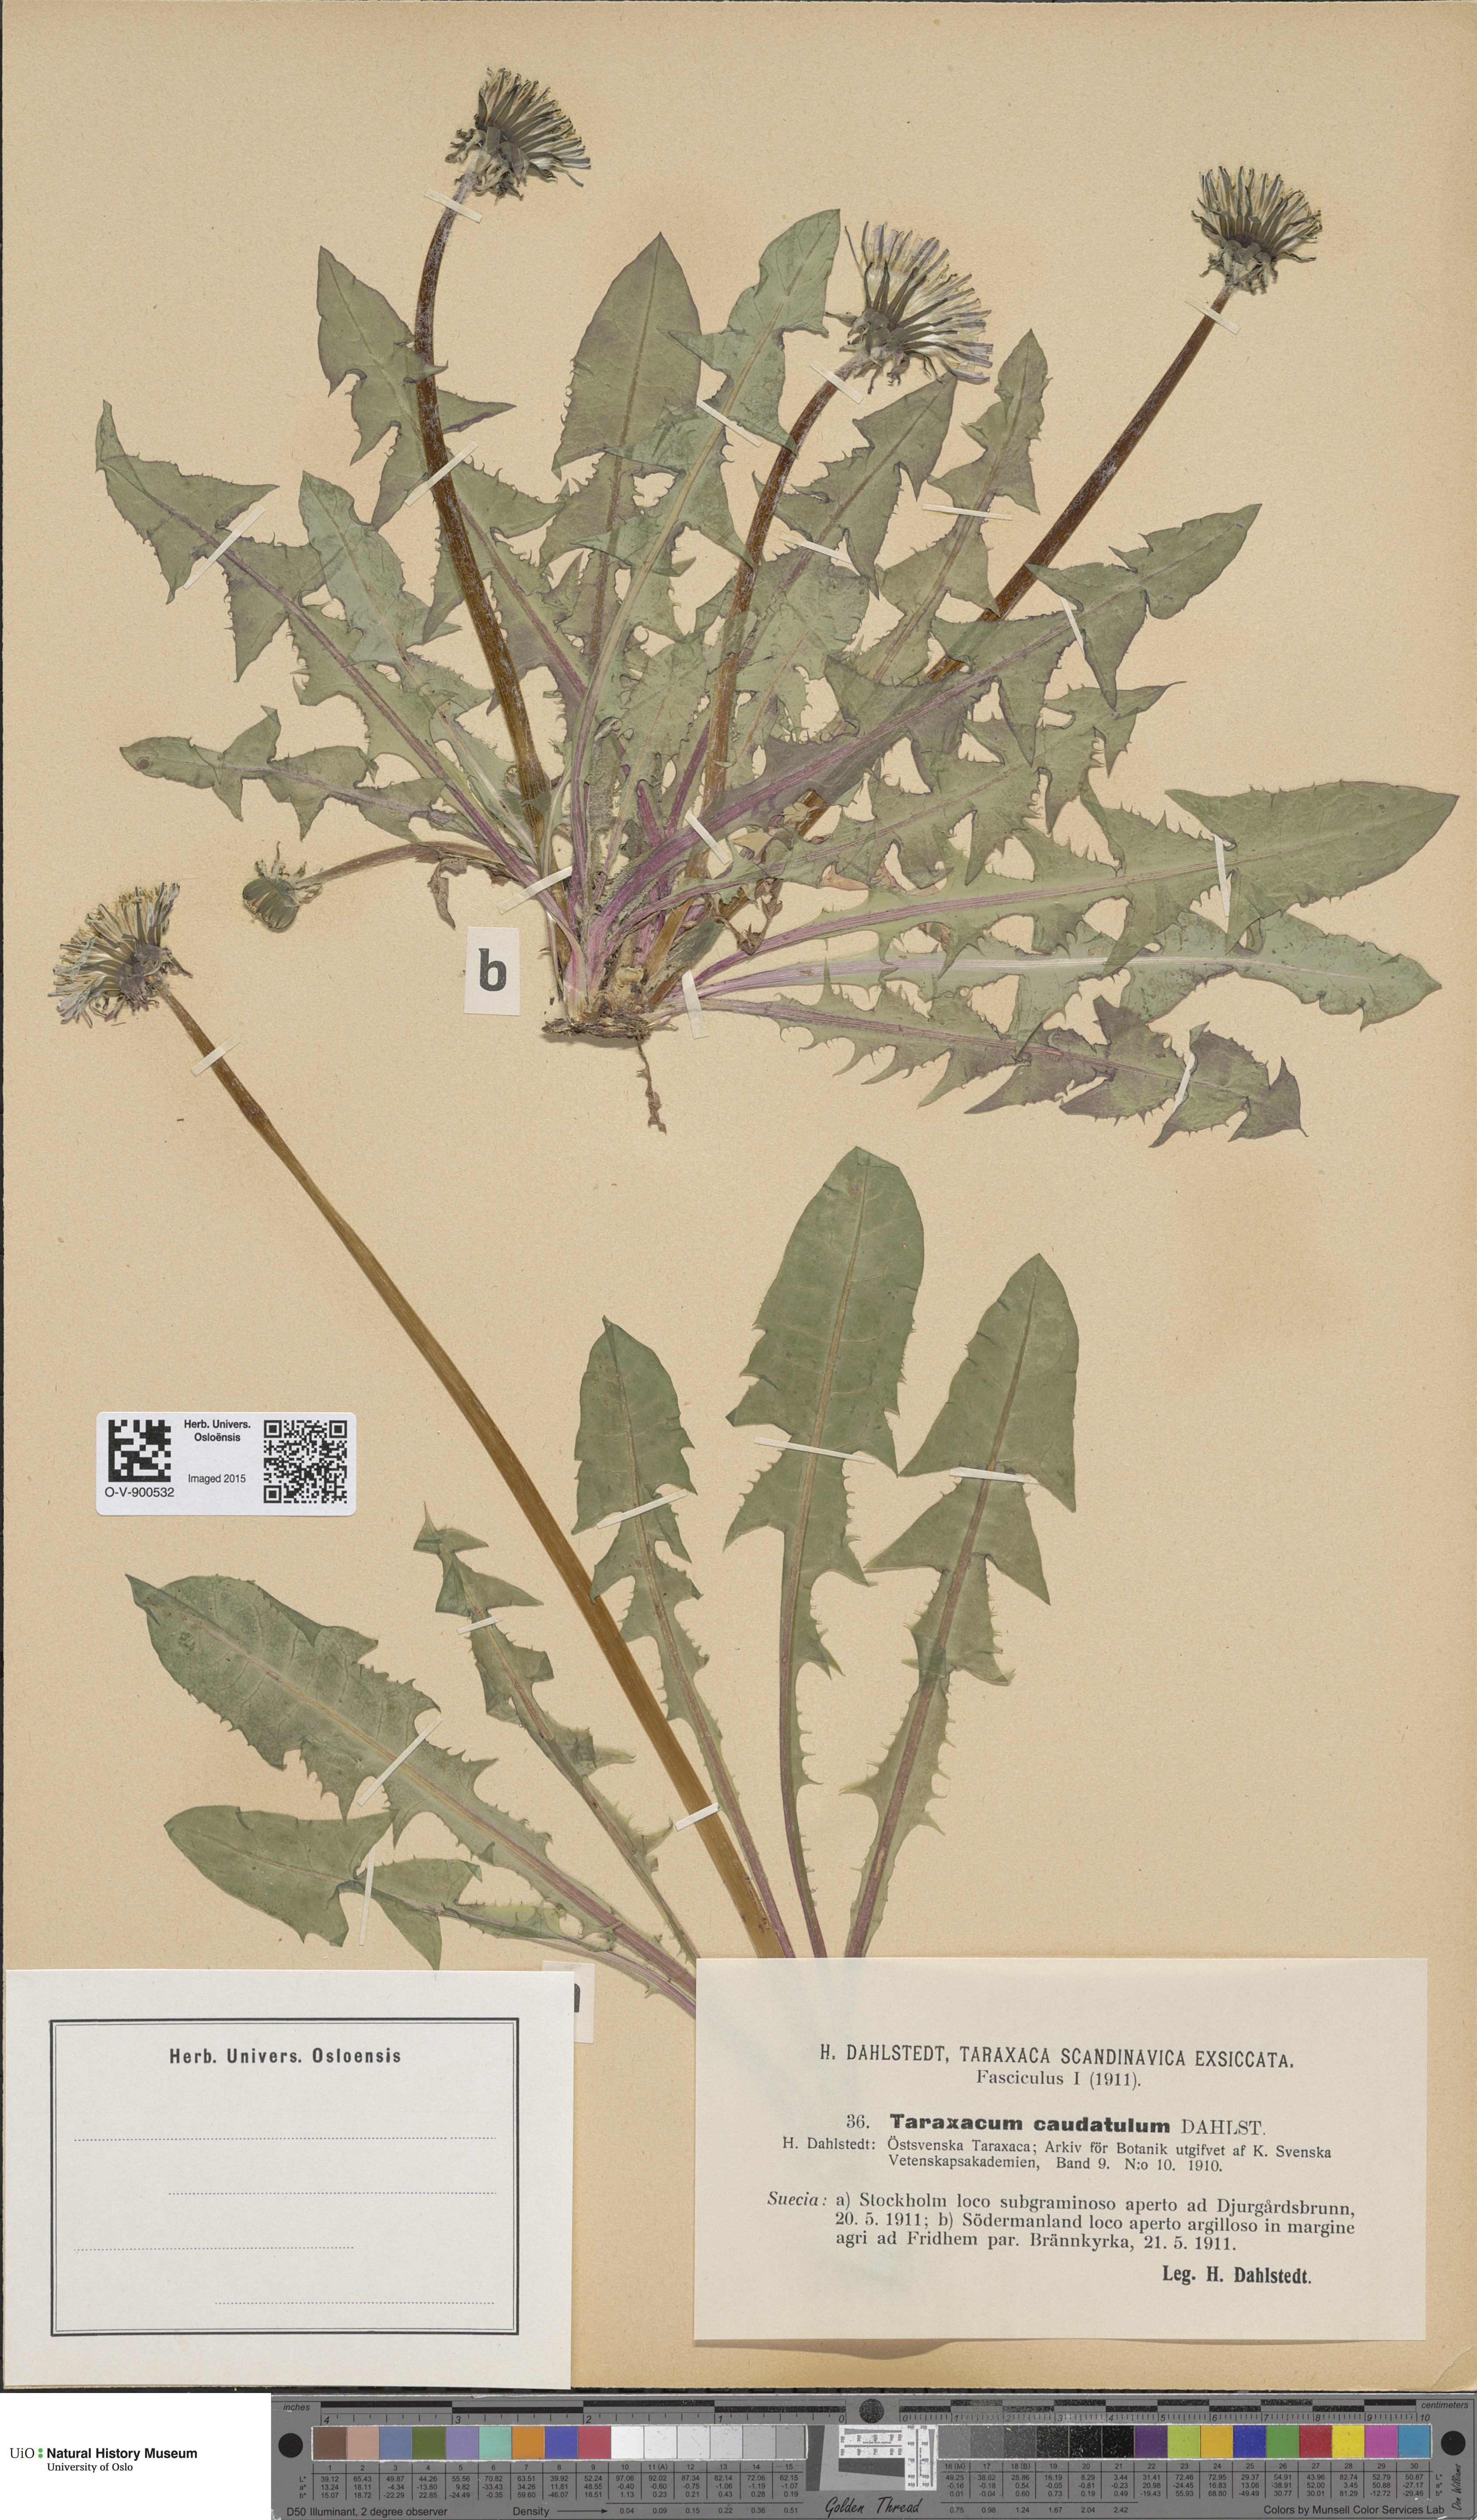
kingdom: Plantae
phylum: Tracheophyta
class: Magnoliopsida
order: Asterales
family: Asteraceae
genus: Taraxacum
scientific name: Taraxacum caudatulum
